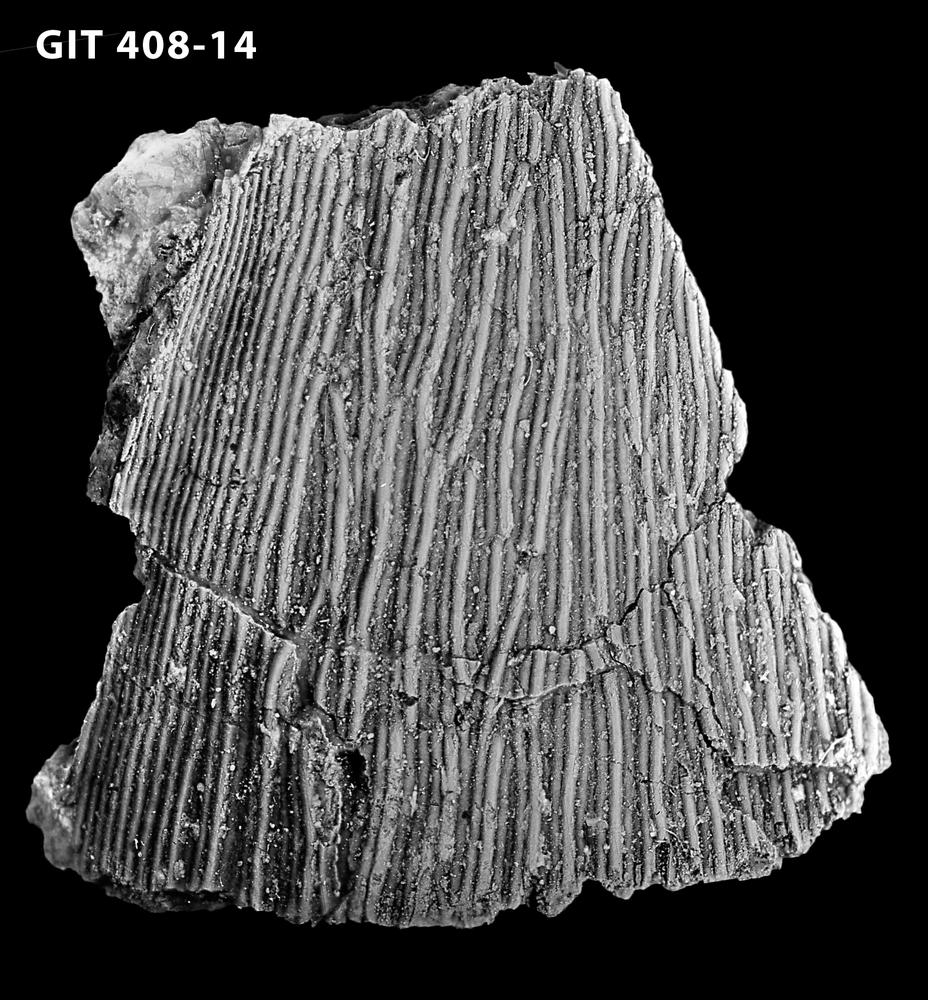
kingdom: Animalia
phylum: Chordata
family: Cyathaspididae
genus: Cyathaspis
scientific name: Cyathaspis
